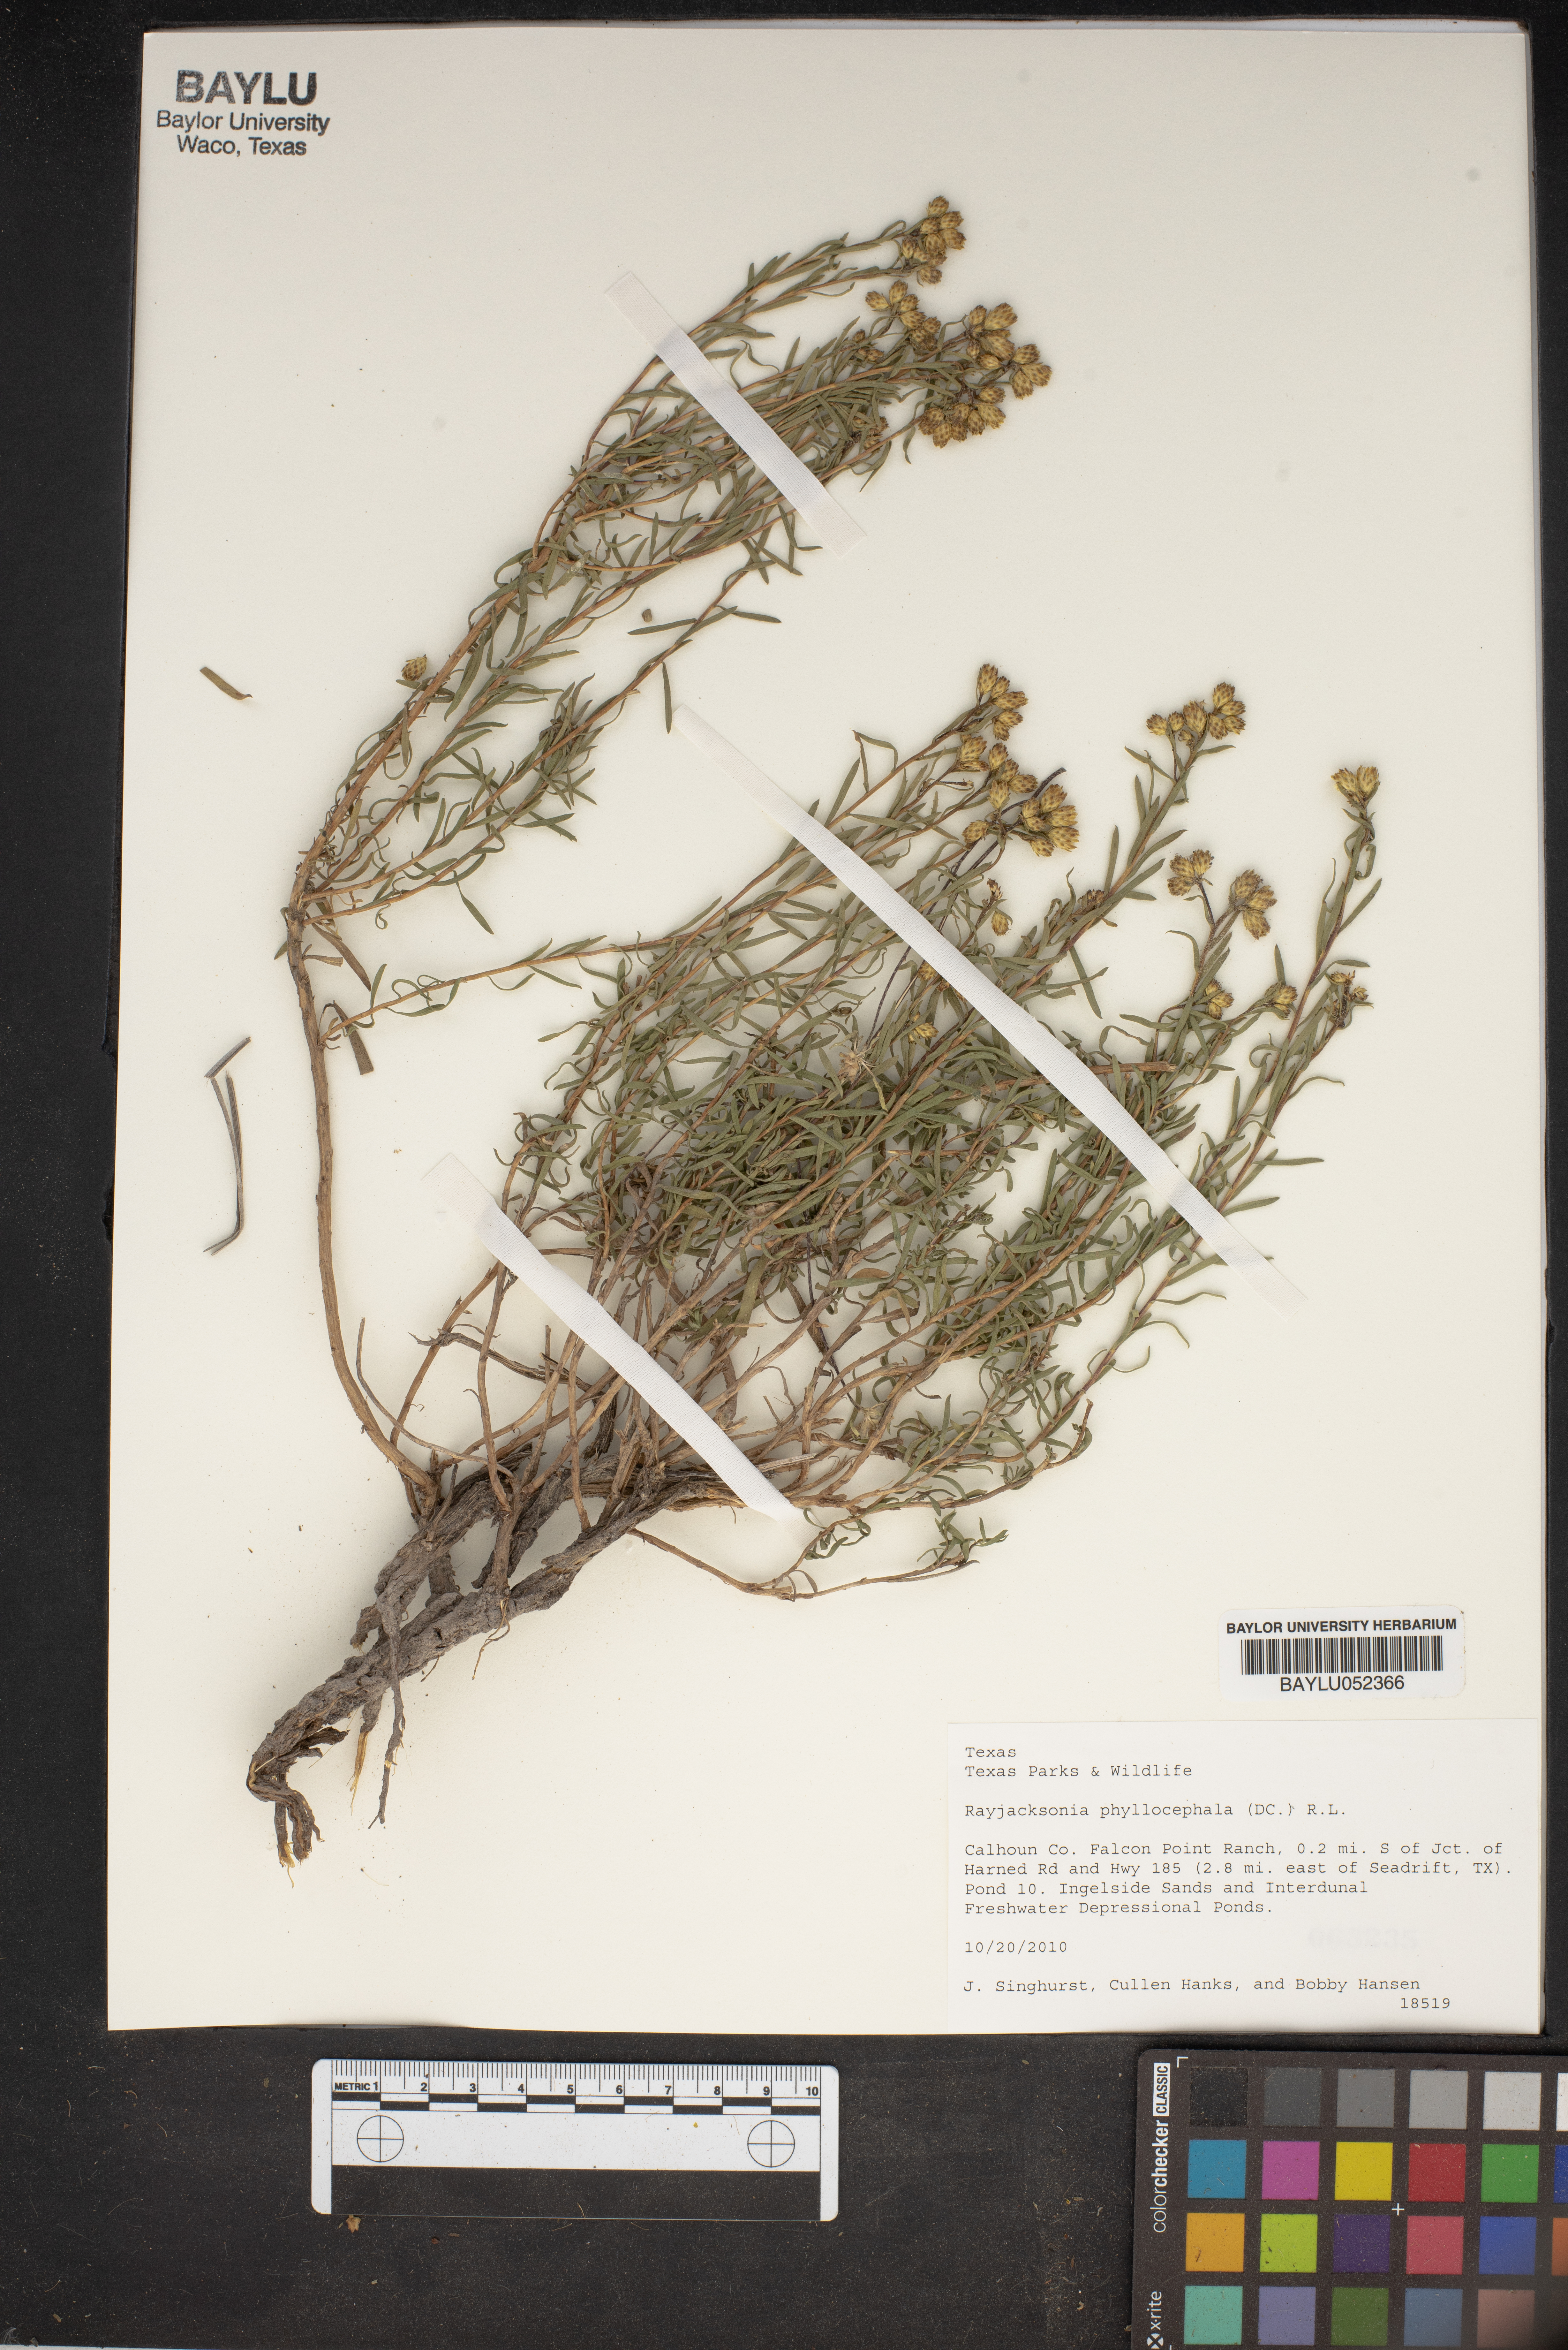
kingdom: Plantae
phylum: Tracheophyta
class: Magnoliopsida
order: Asterales
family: Asteraceae
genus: Rayjacksonia
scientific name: Rayjacksonia phyllocephala
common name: Gulf coast camphor daisy
